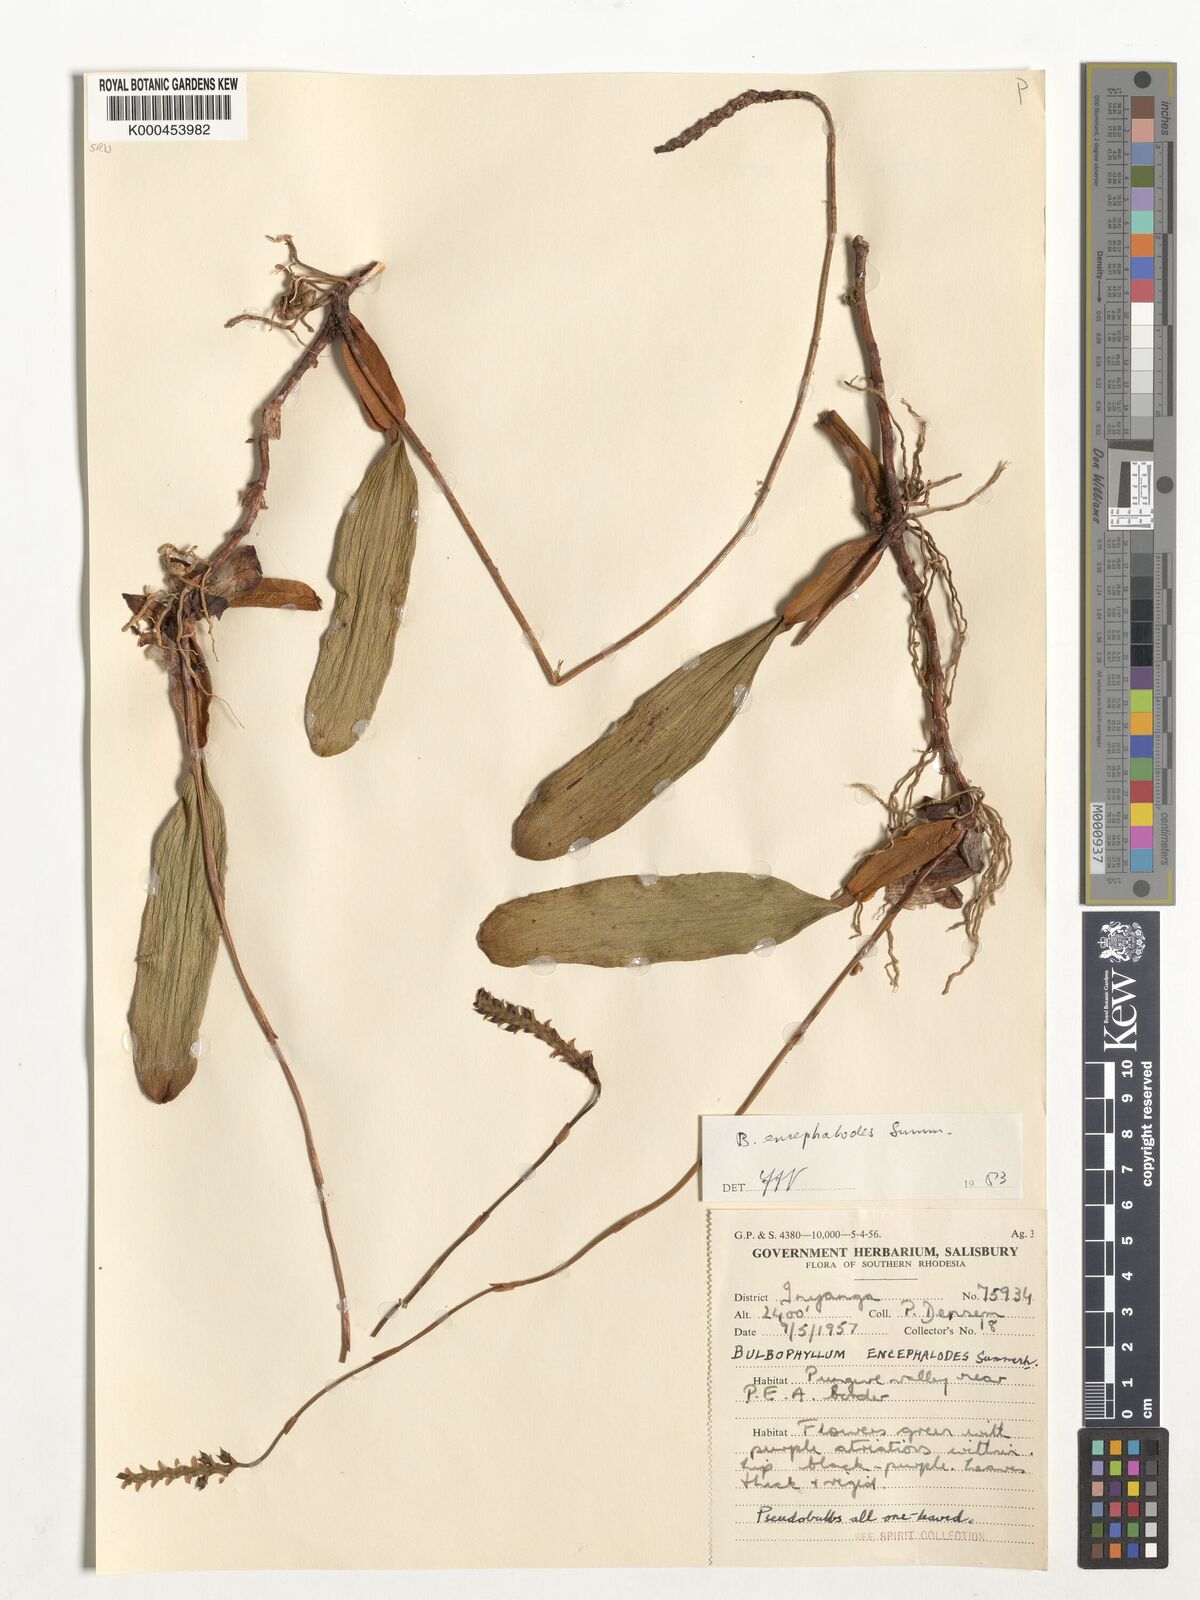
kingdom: Plantae
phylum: Tracheophyta
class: Liliopsida
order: Asparagales
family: Orchidaceae
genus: Bulbophyllum
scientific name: Bulbophyllum encephalodes
